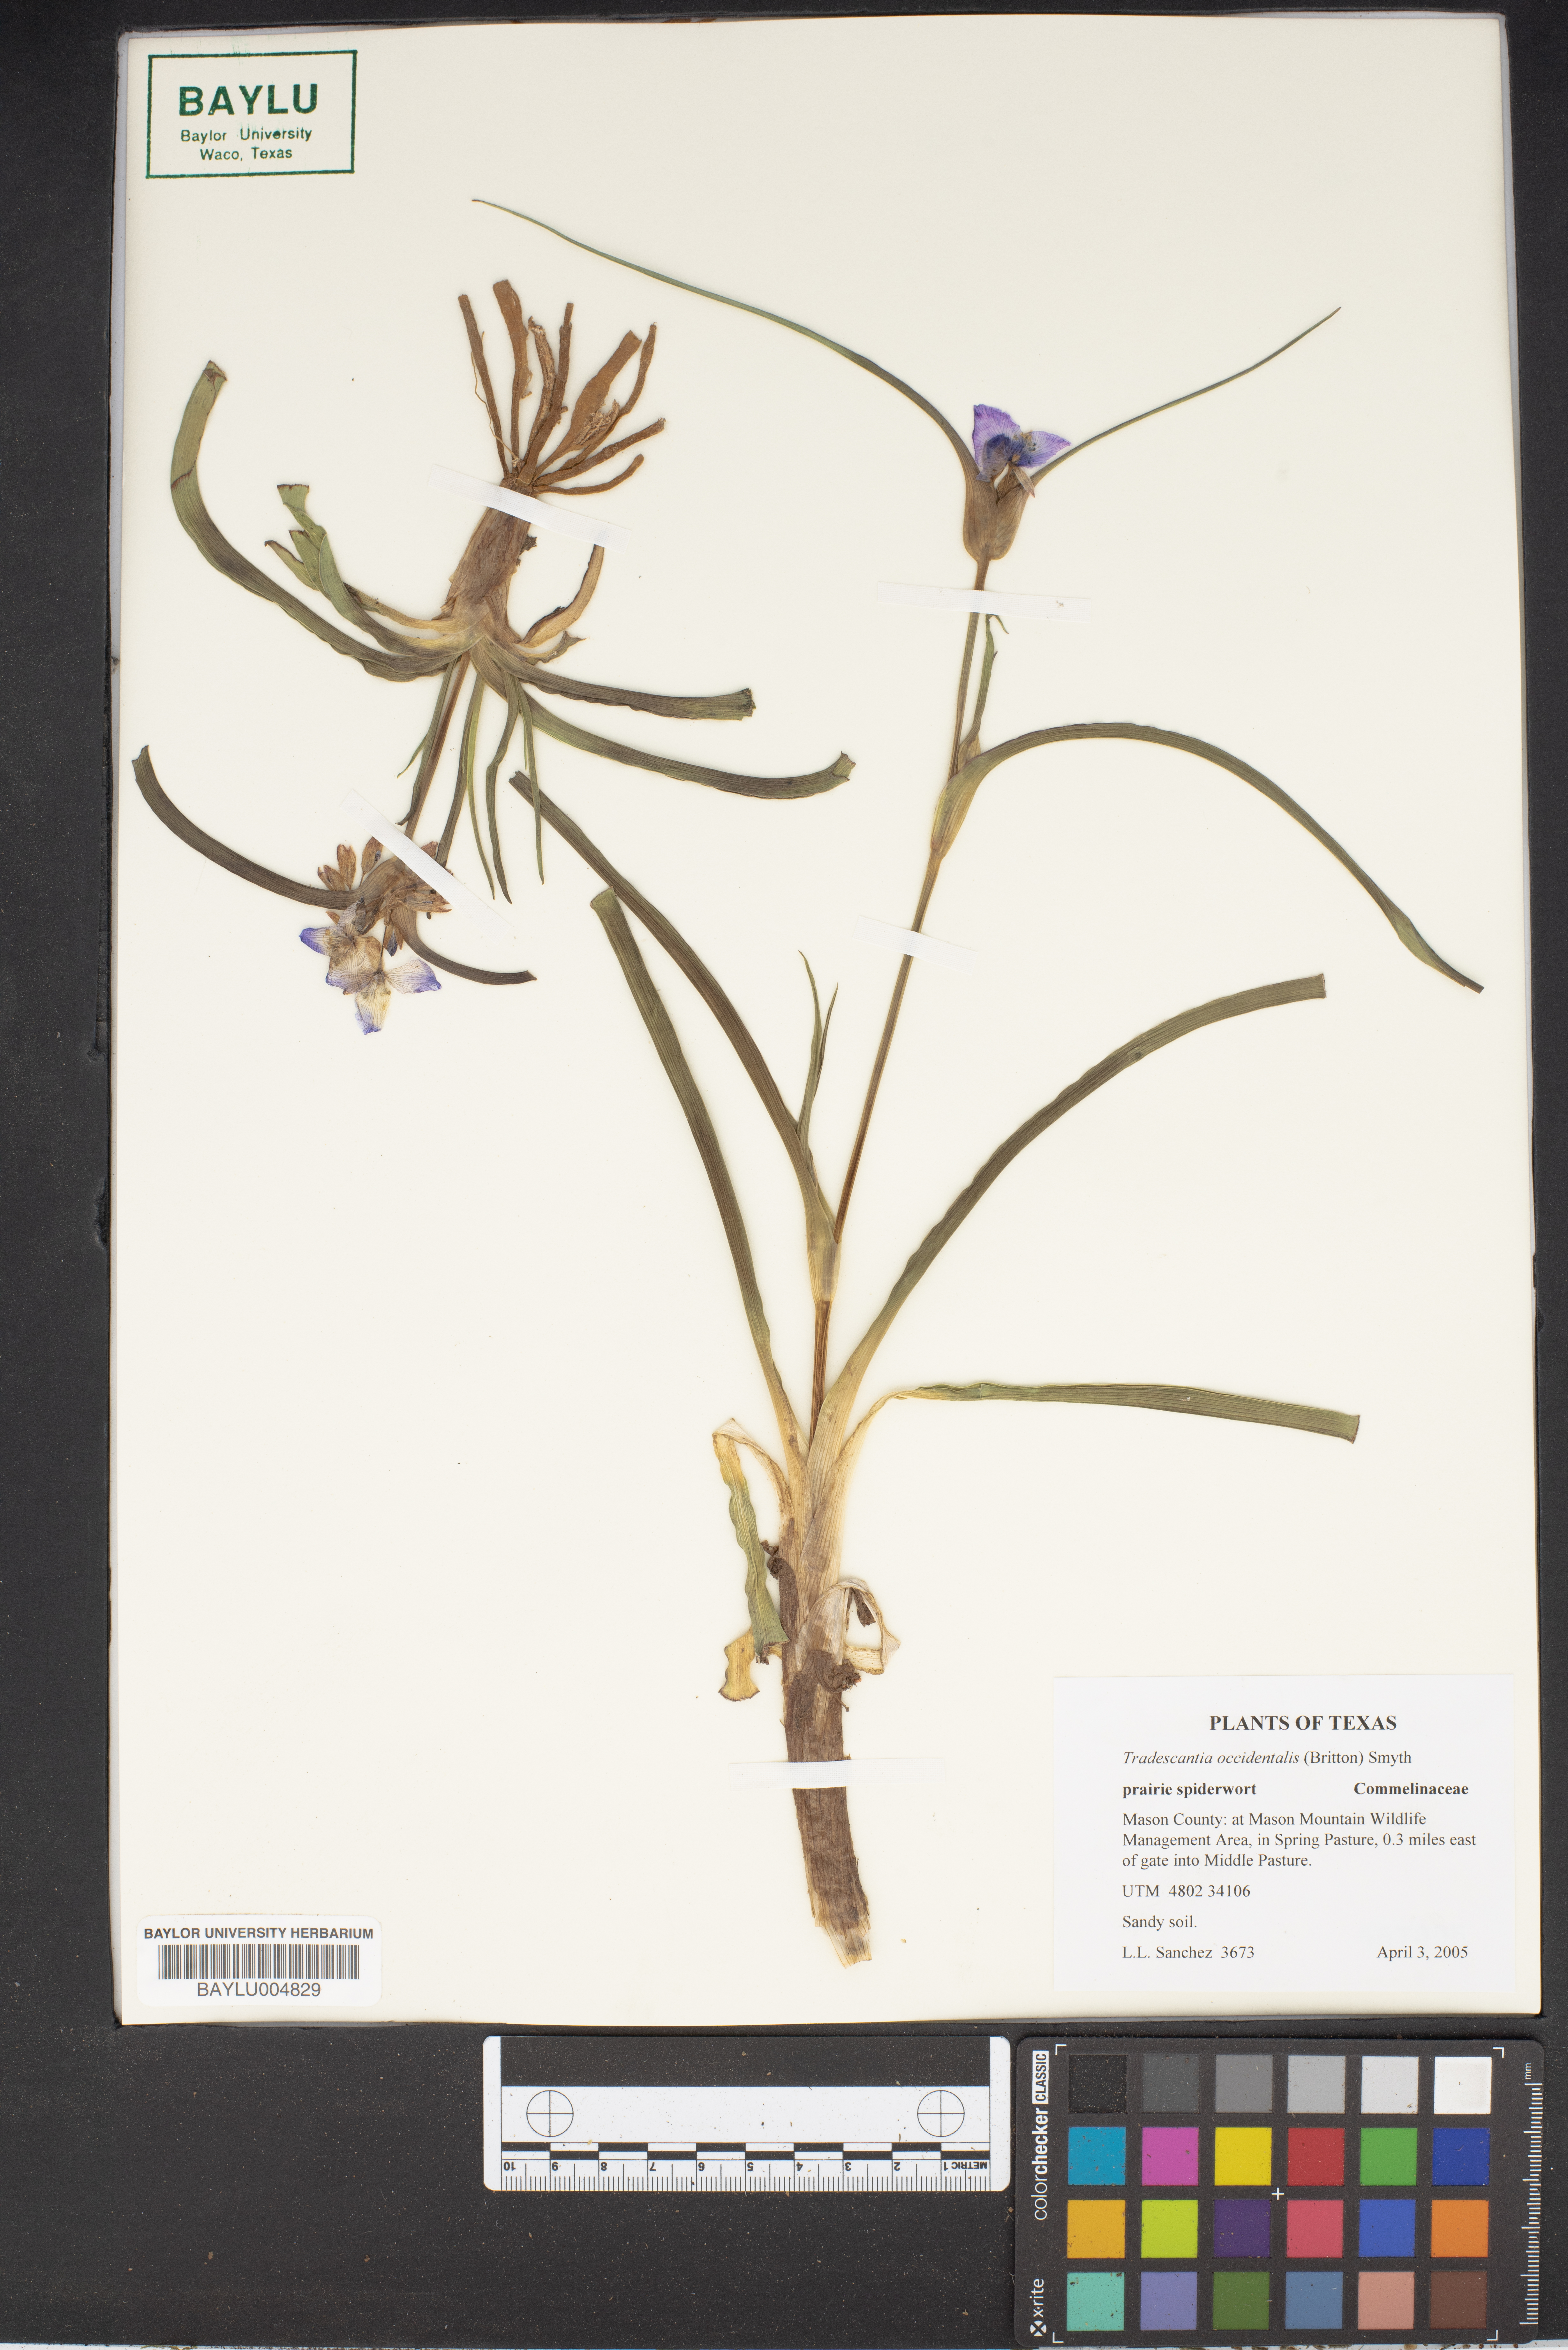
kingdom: Plantae
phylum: Tracheophyta
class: Liliopsida
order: Commelinales
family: Commelinaceae
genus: Tradescantia
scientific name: Tradescantia occidentalis
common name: Prairie spiderwort
